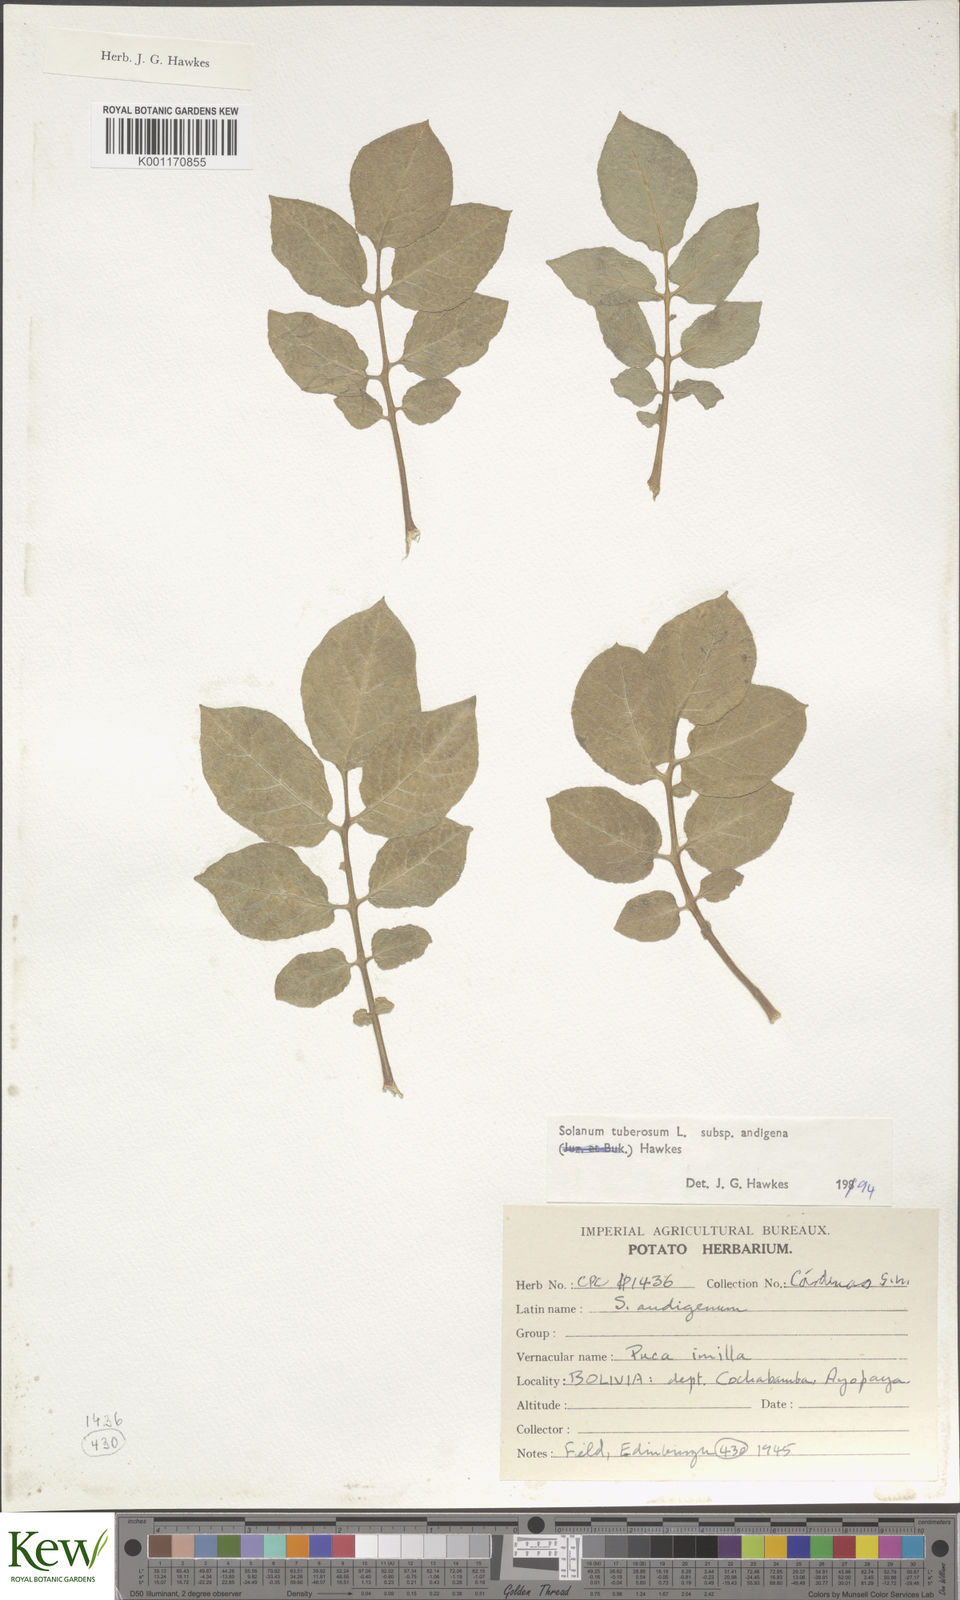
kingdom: Plantae
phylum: Tracheophyta
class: Magnoliopsida
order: Solanales
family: Solanaceae
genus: Solanum
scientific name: Solanum tuberosum
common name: Potato
